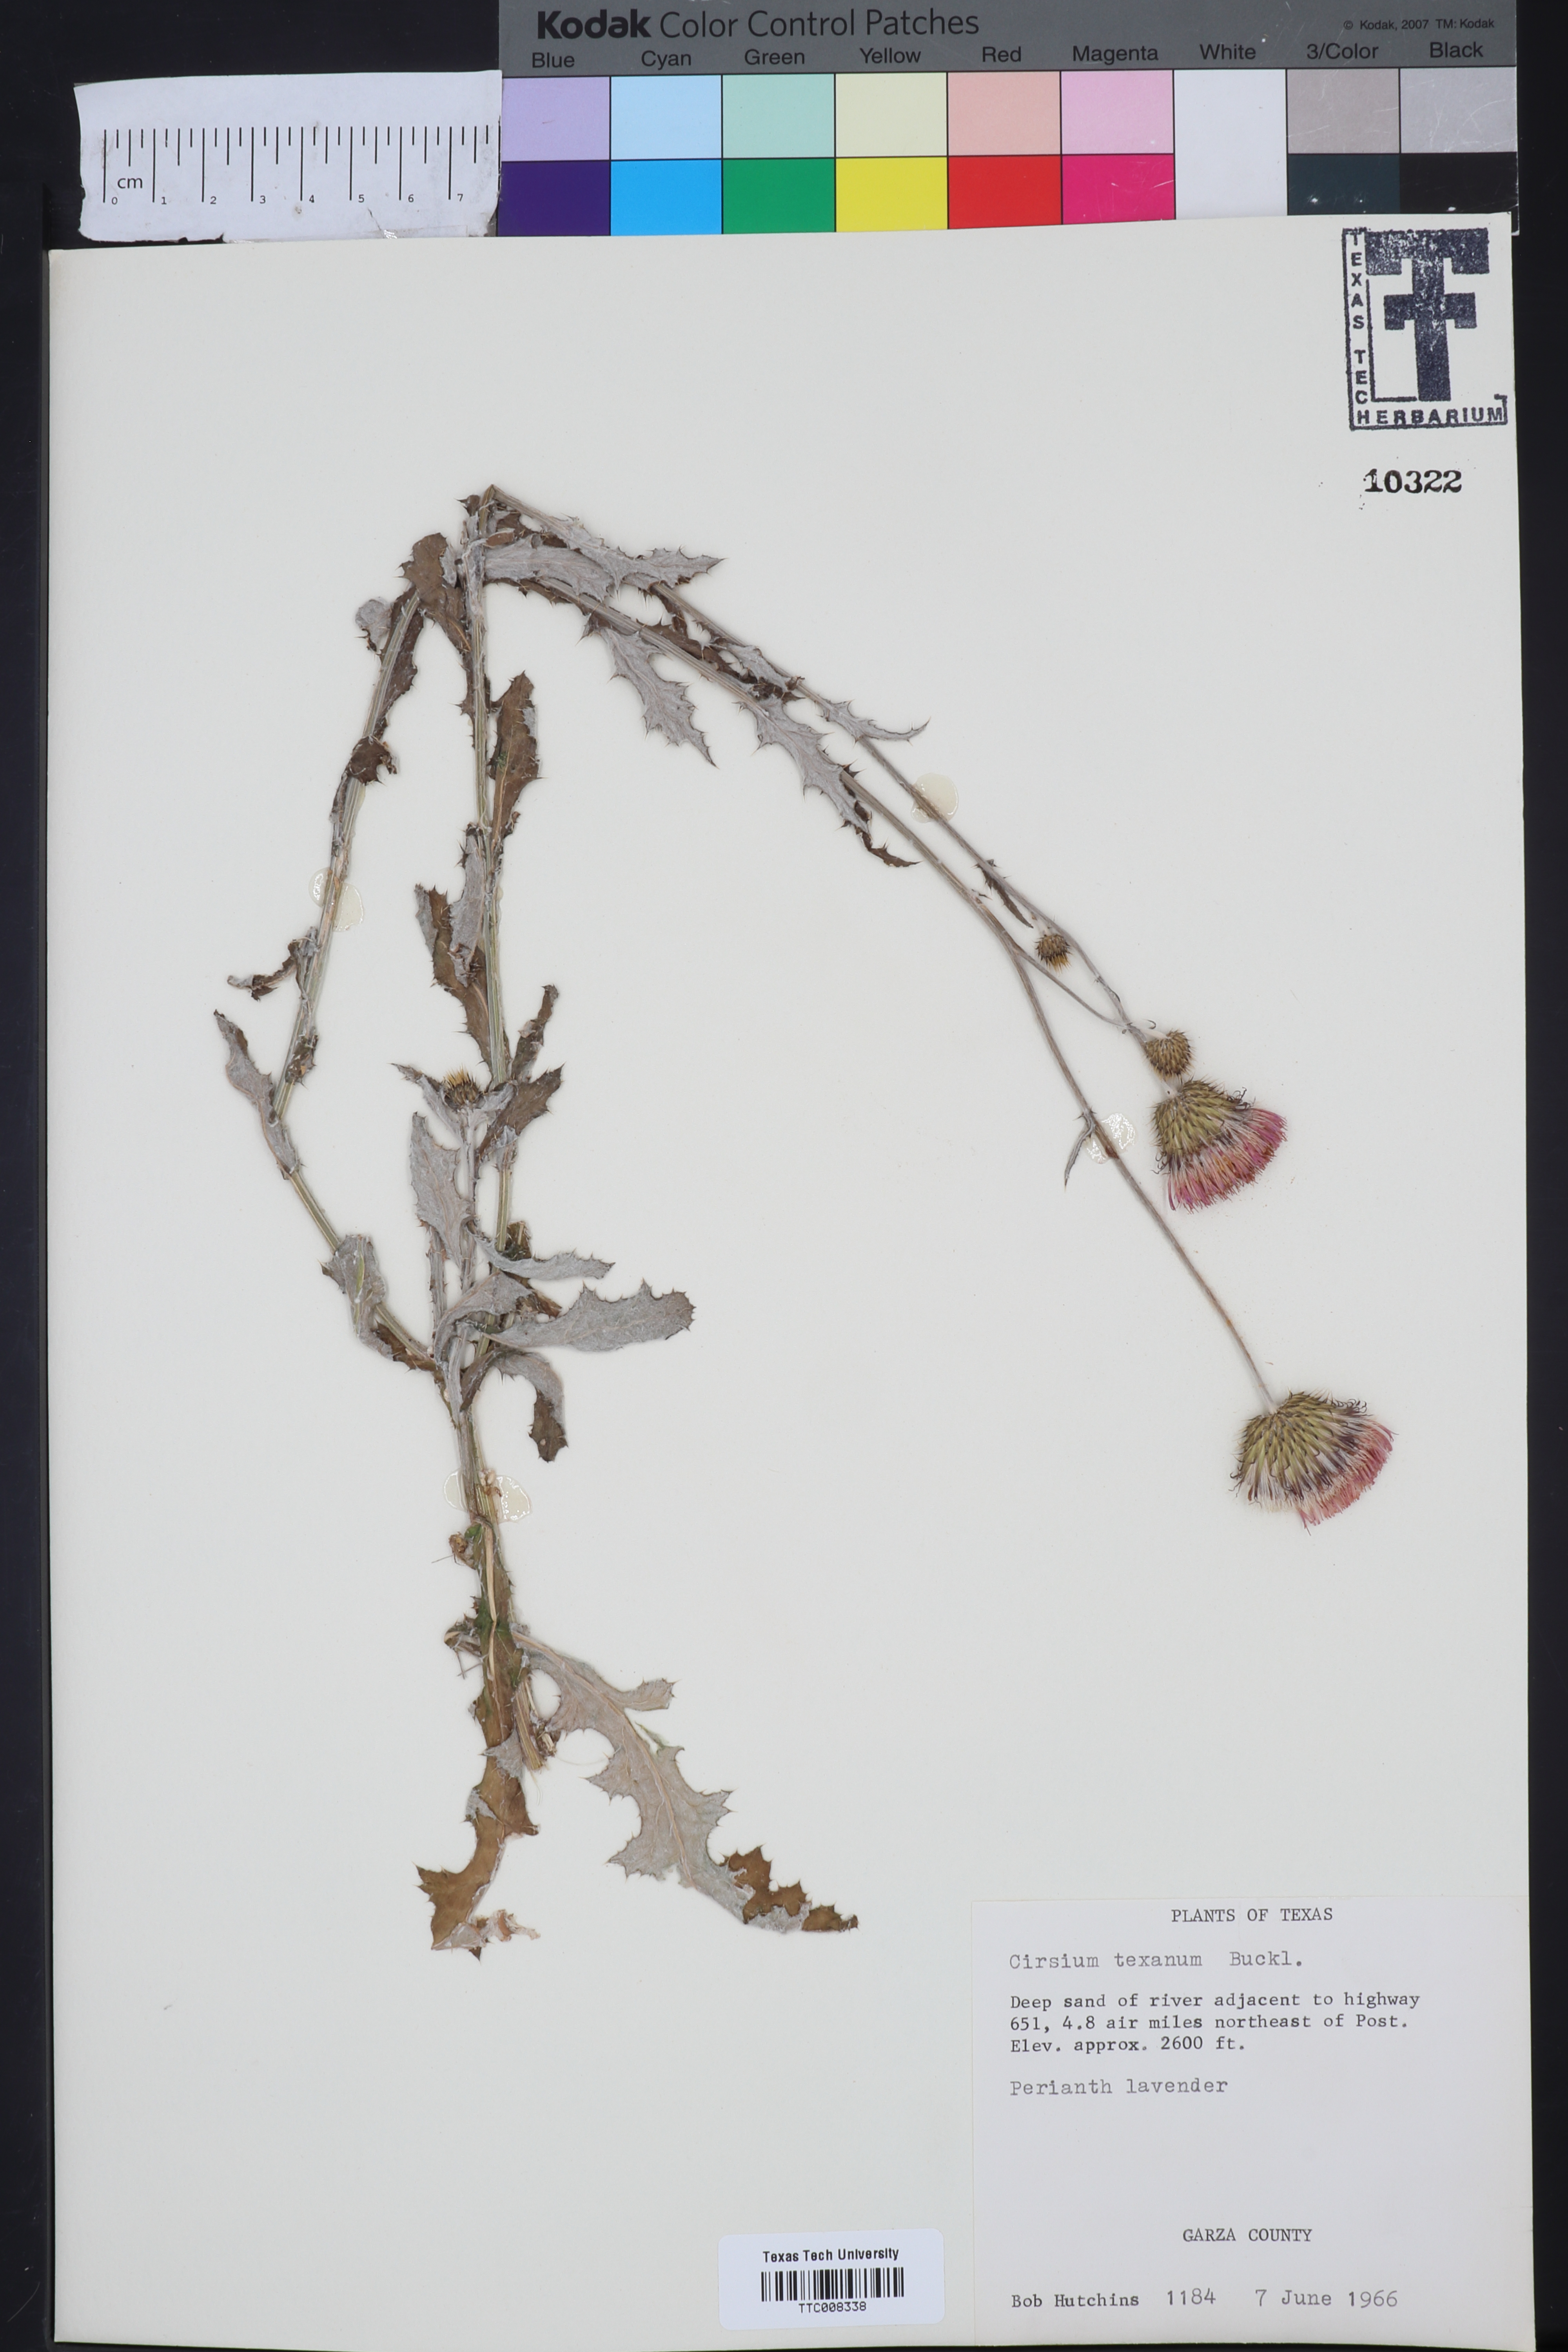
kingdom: Plantae
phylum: Tracheophyta
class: Magnoliopsida
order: Asterales
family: Asteraceae
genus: Cirsium
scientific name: Cirsium texanum
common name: Texas purple thistle
